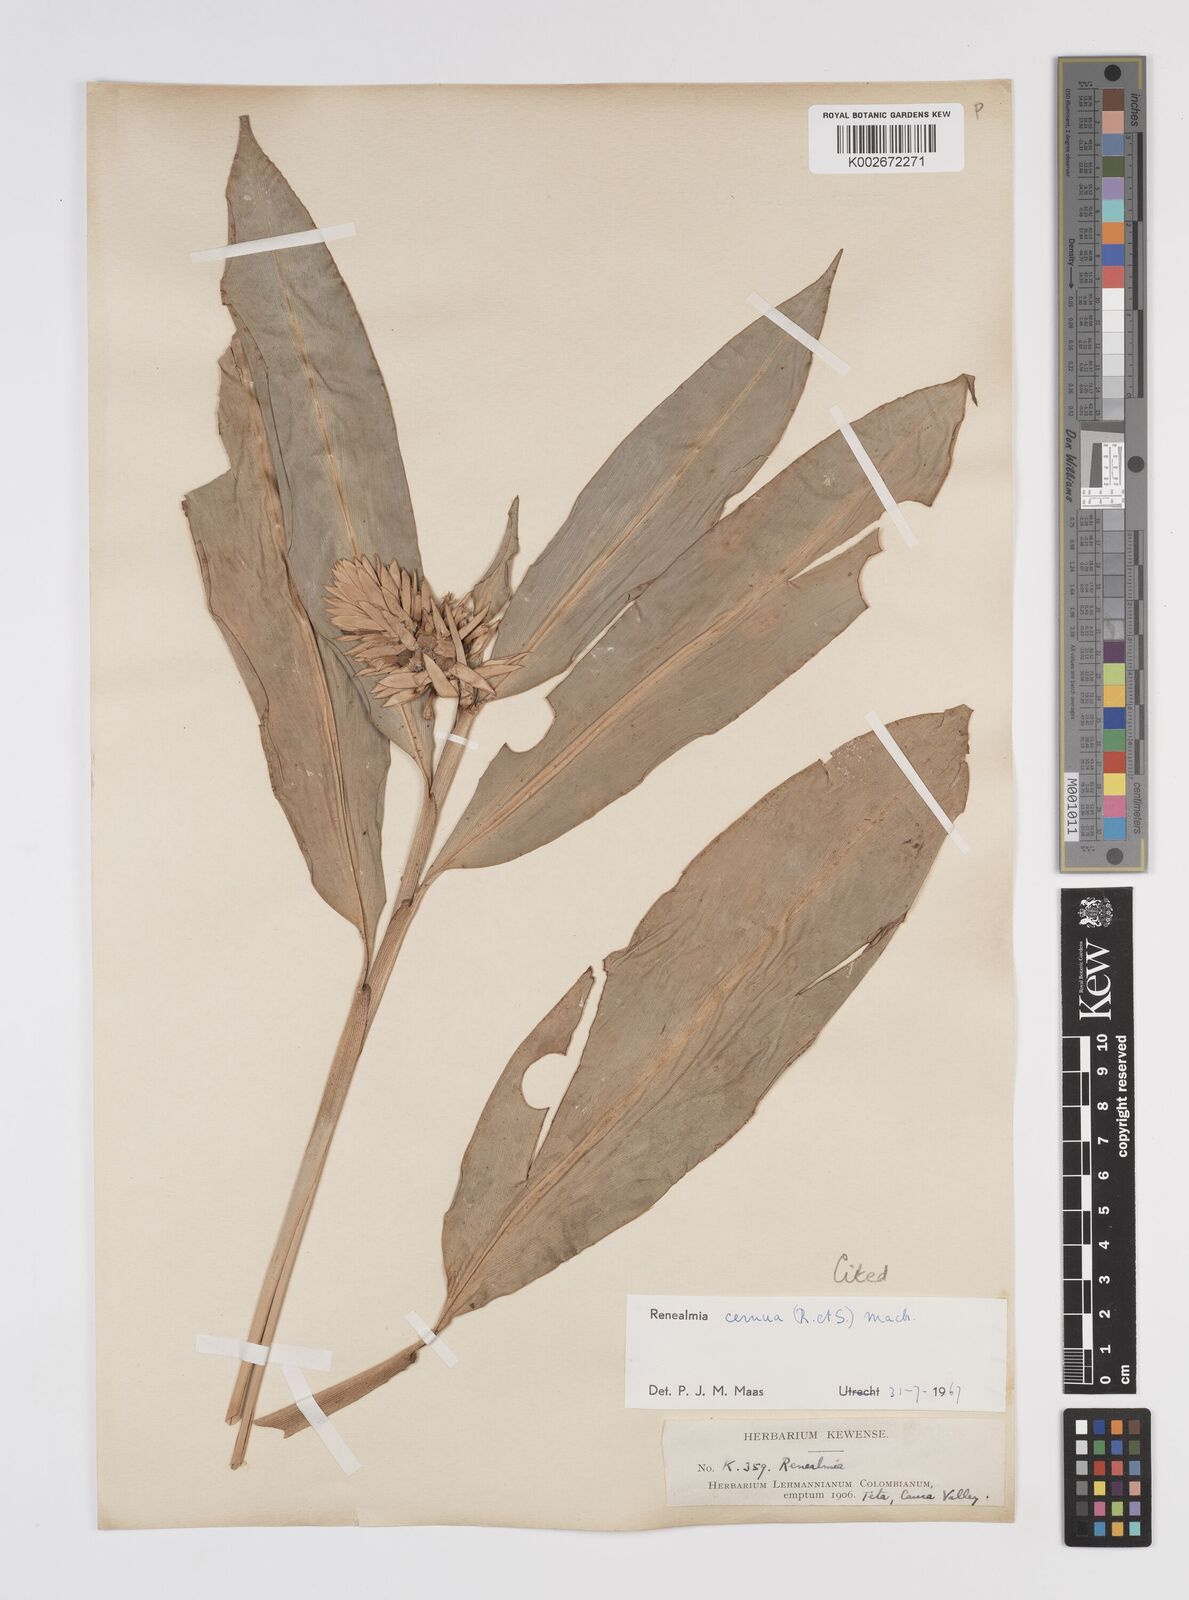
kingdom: Plantae
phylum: Tracheophyta
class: Liliopsida
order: Zingiberales
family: Zingiberaceae
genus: Renealmia
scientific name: Renealmia cernua
